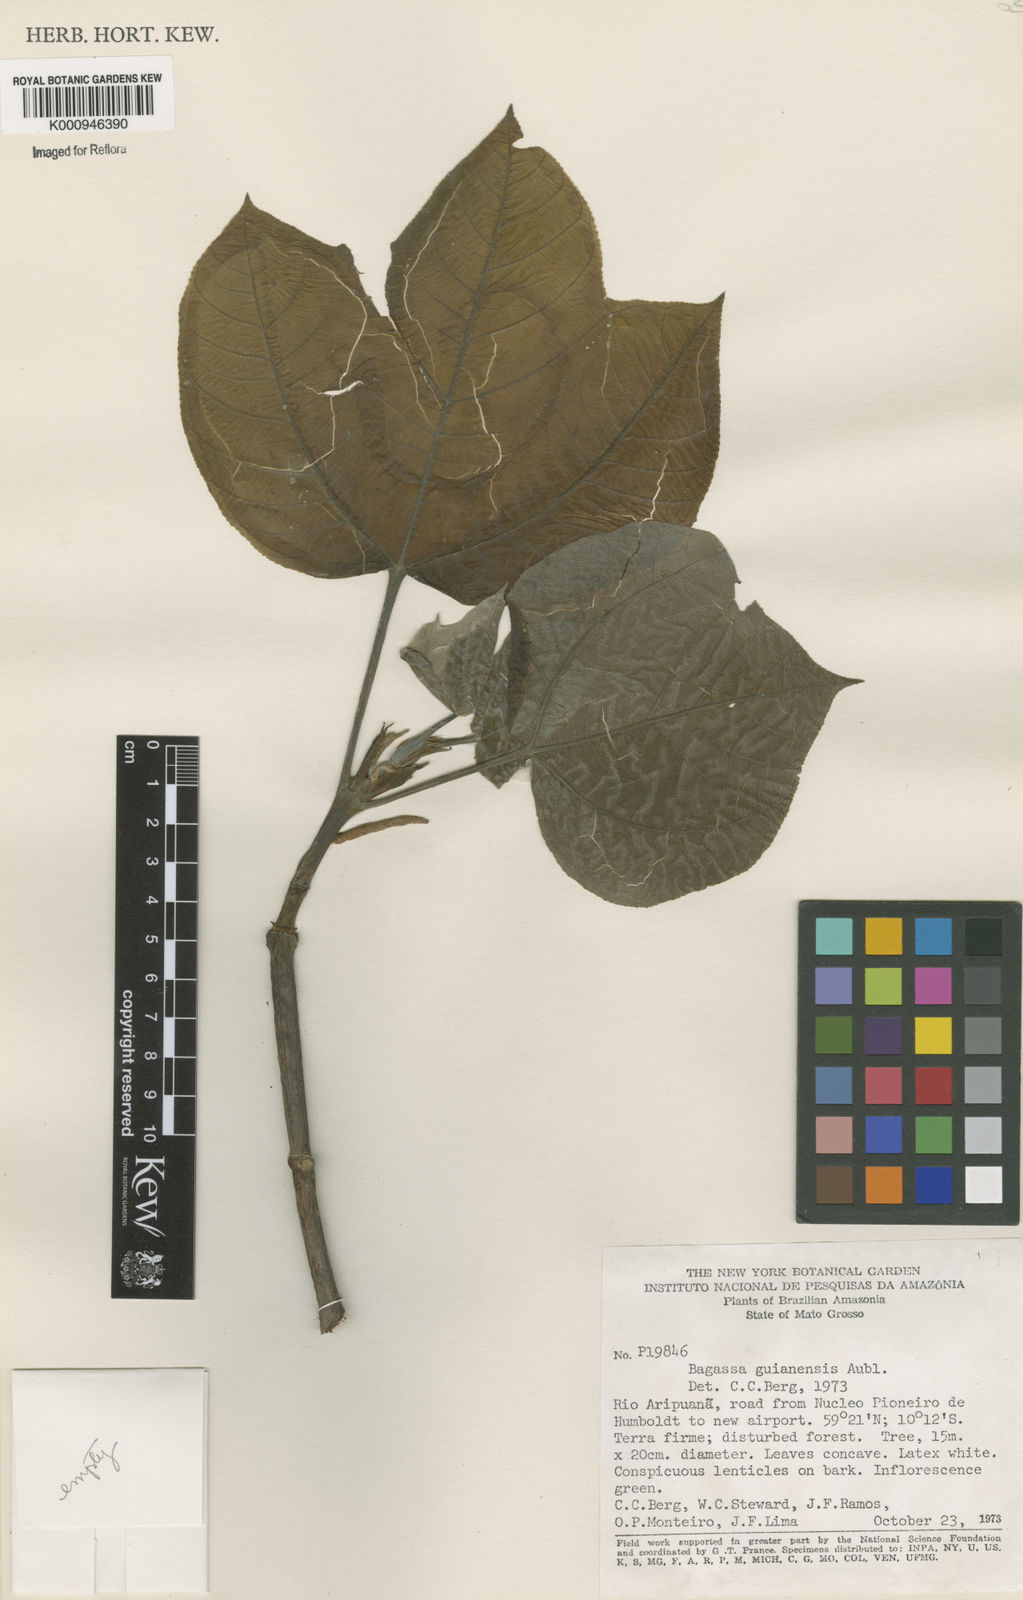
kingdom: Plantae
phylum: Tracheophyta
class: Magnoliopsida
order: Rosales
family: Moraceae
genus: Bagassa
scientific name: Bagassa guianensis
